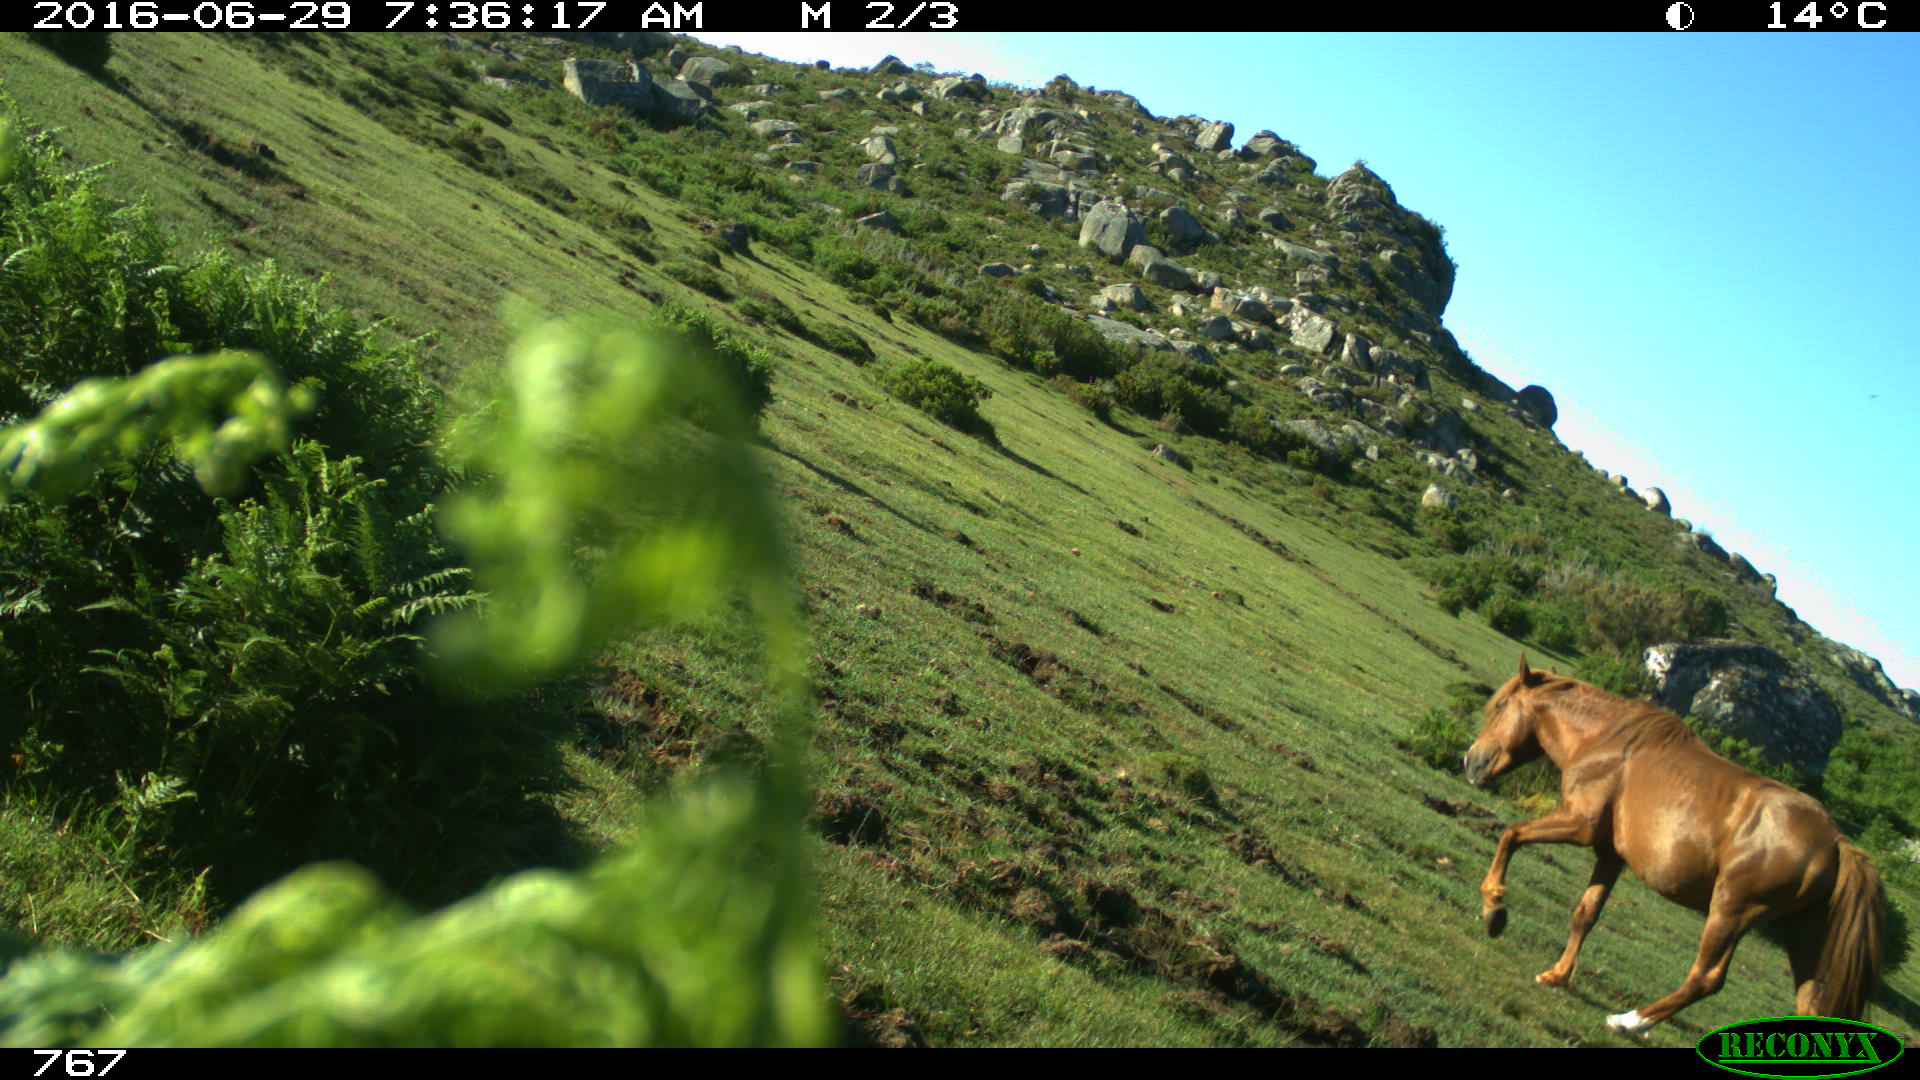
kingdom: Animalia
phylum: Chordata
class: Mammalia
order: Perissodactyla
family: Equidae
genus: Equus
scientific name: Equus caballus
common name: Horse
